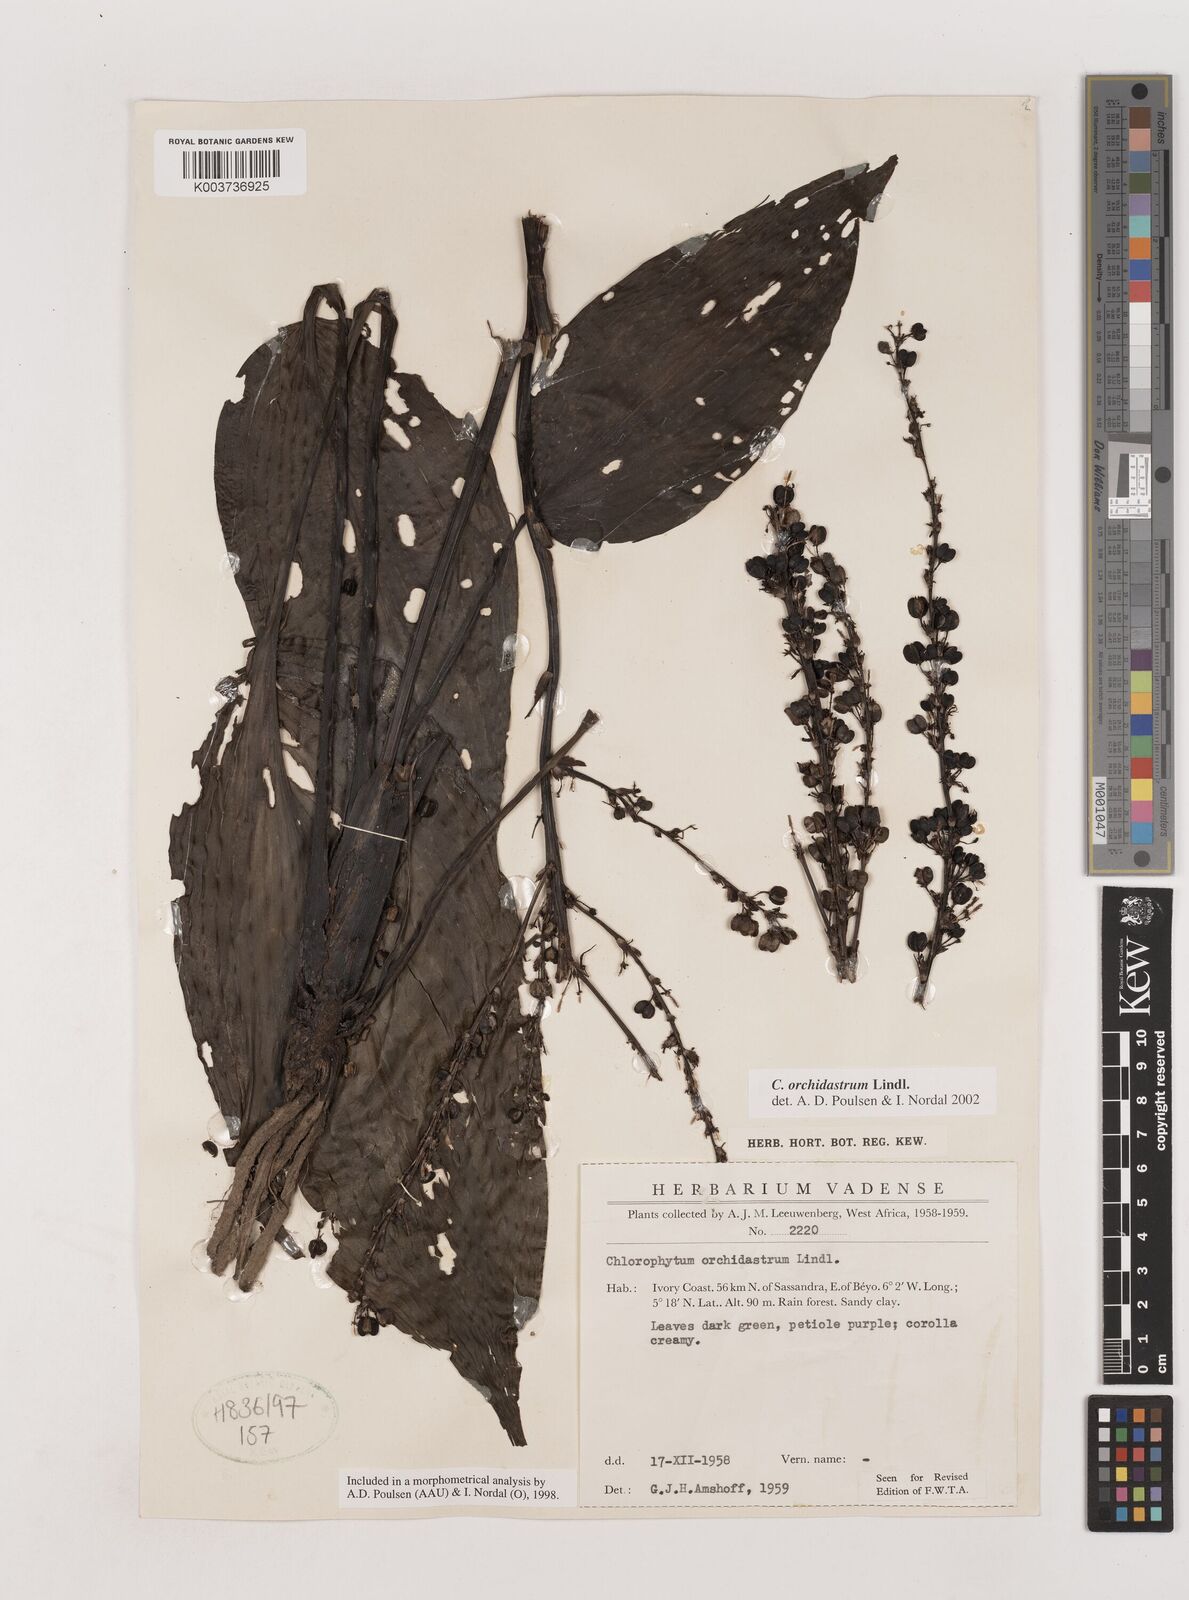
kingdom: Plantae
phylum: Tracheophyta
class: Liliopsida
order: Asparagales
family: Asparagaceae
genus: Chlorophytum
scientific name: Chlorophytum orchidastrum
